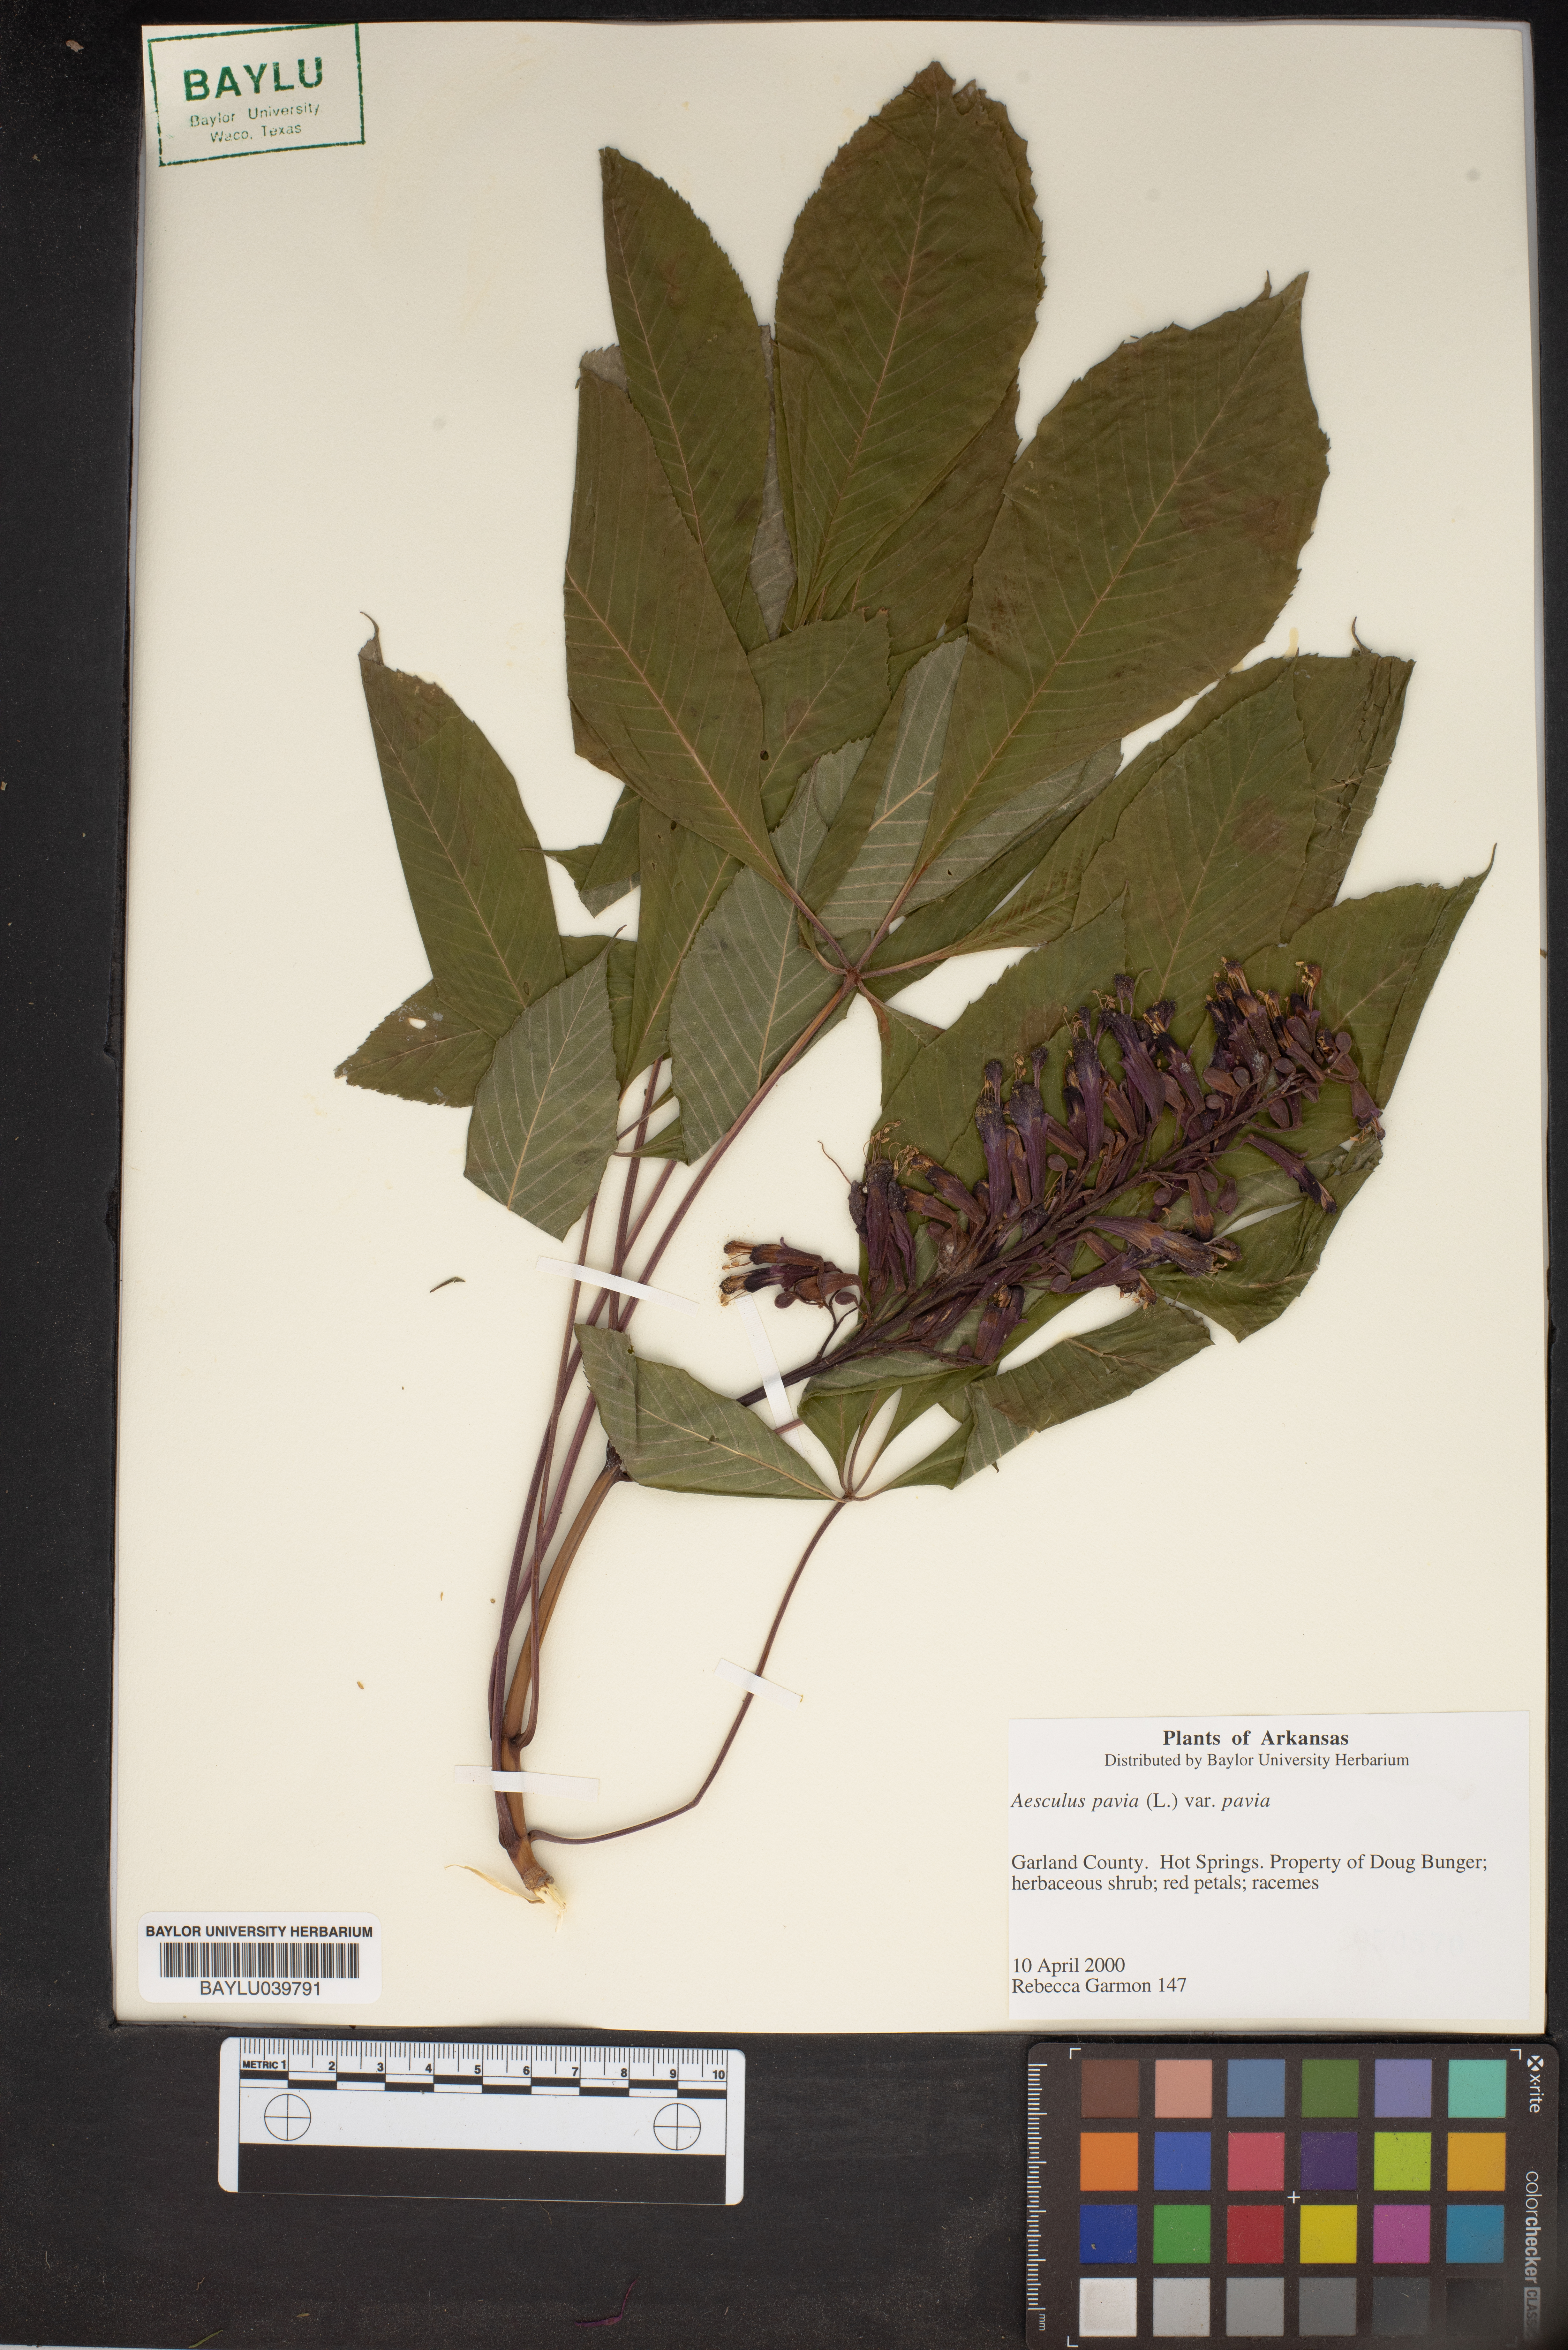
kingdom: Plantae
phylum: Tracheophyta
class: Magnoliopsida
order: Sapindales
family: Sapindaceae
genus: Aesculus
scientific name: Aesculus pavia
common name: Red buckeye
